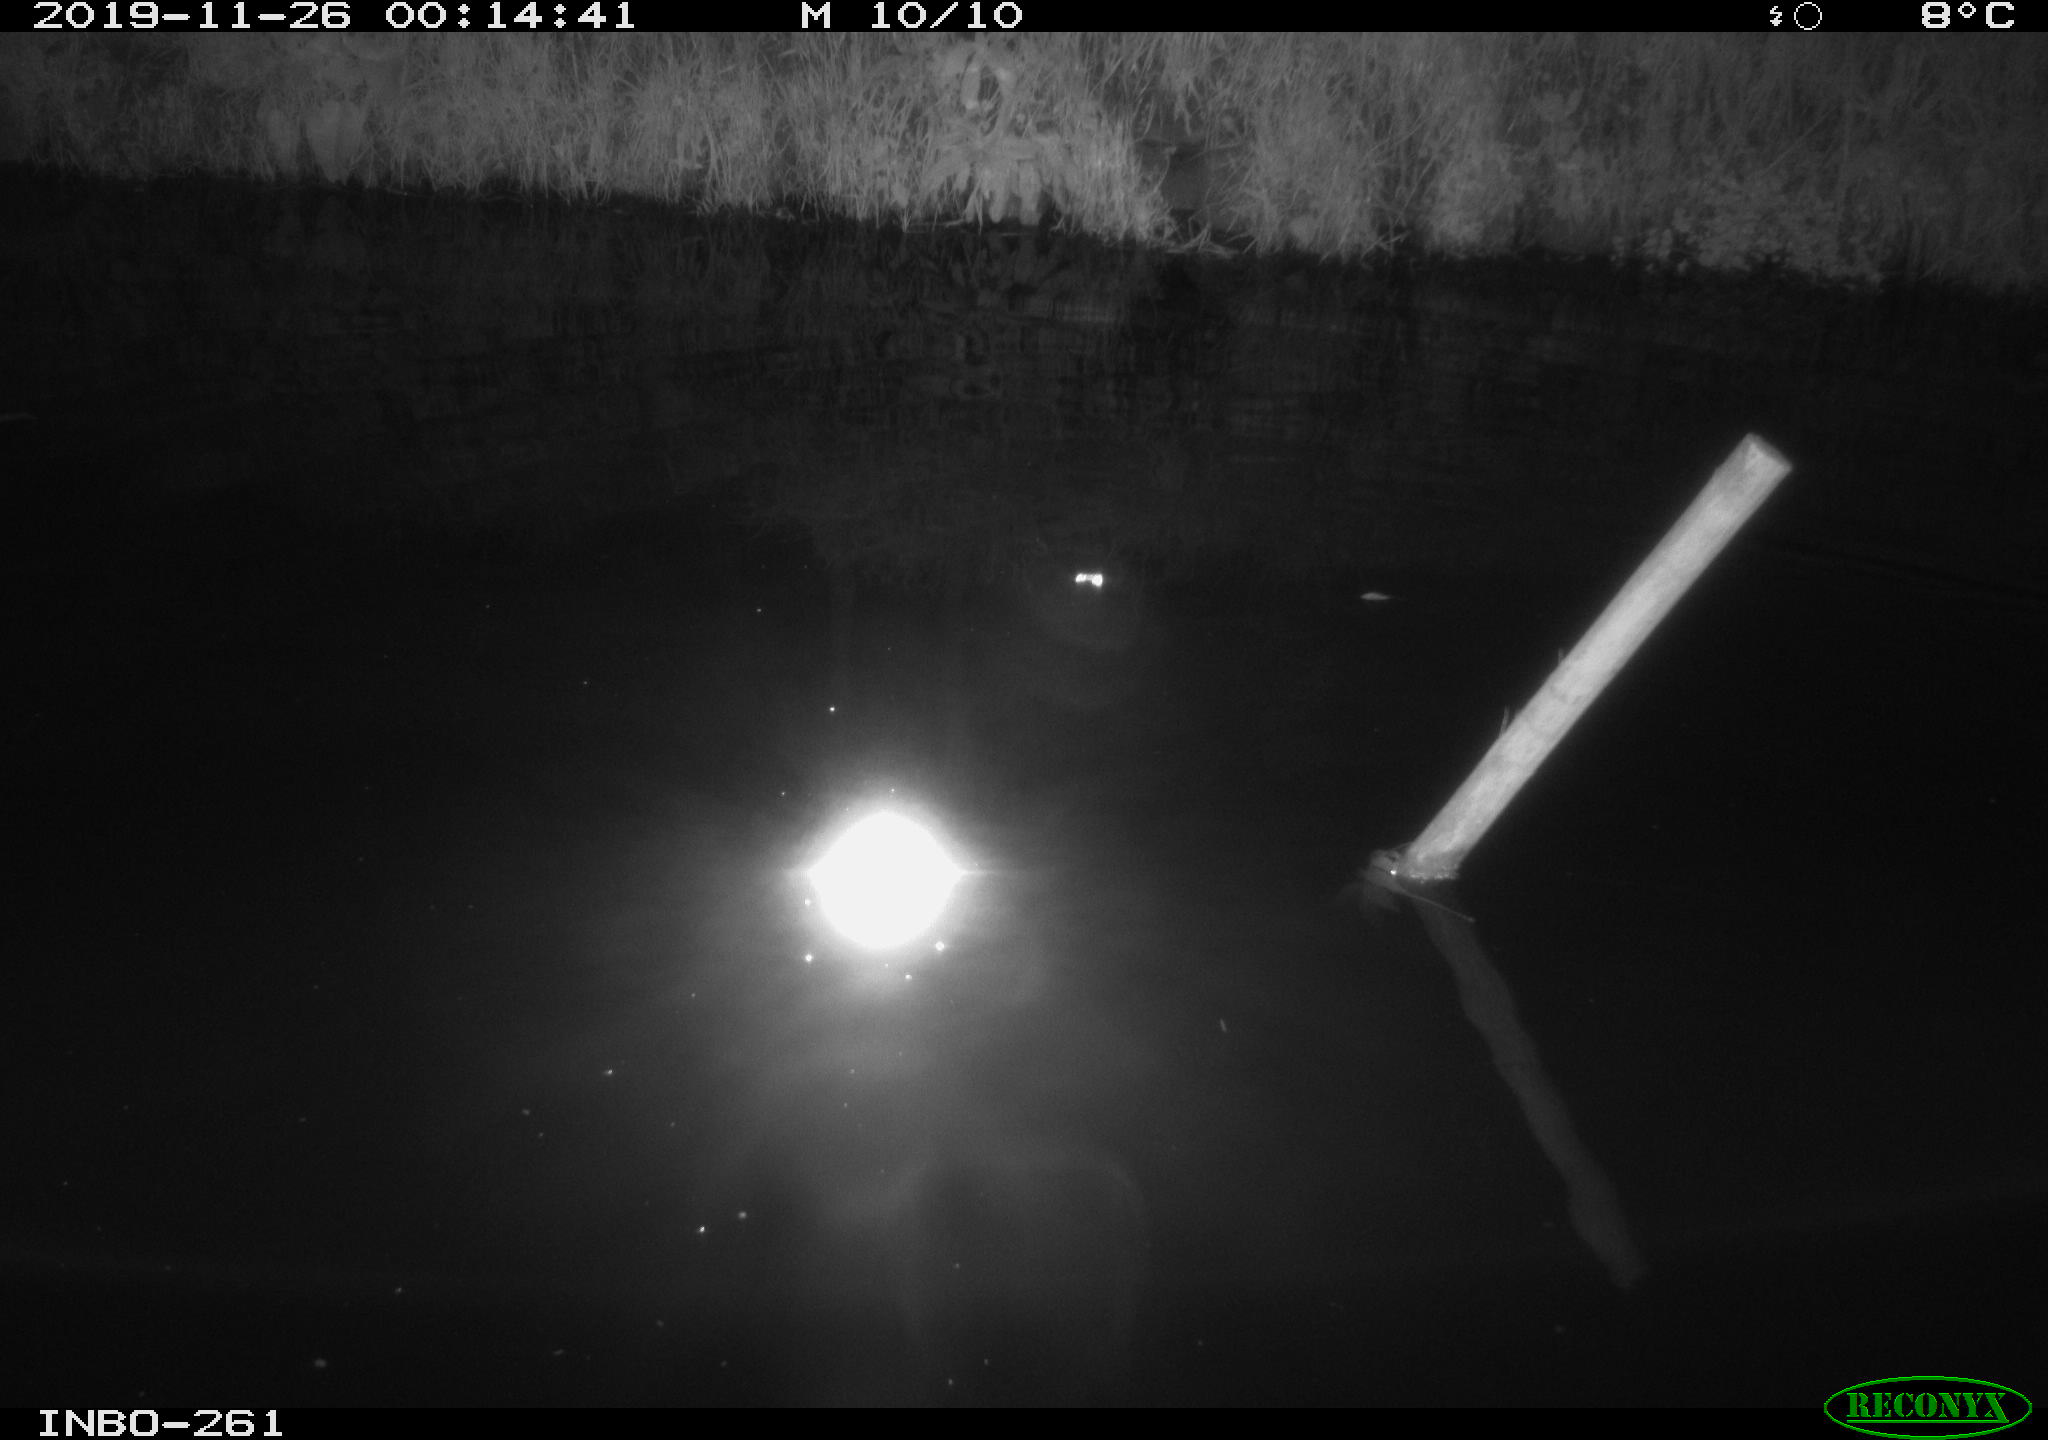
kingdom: Animalia
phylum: Chordata
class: Aves
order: Anseriformes
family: Anatidae
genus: Anas
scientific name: Anas platyrhynchos
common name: Mallard
